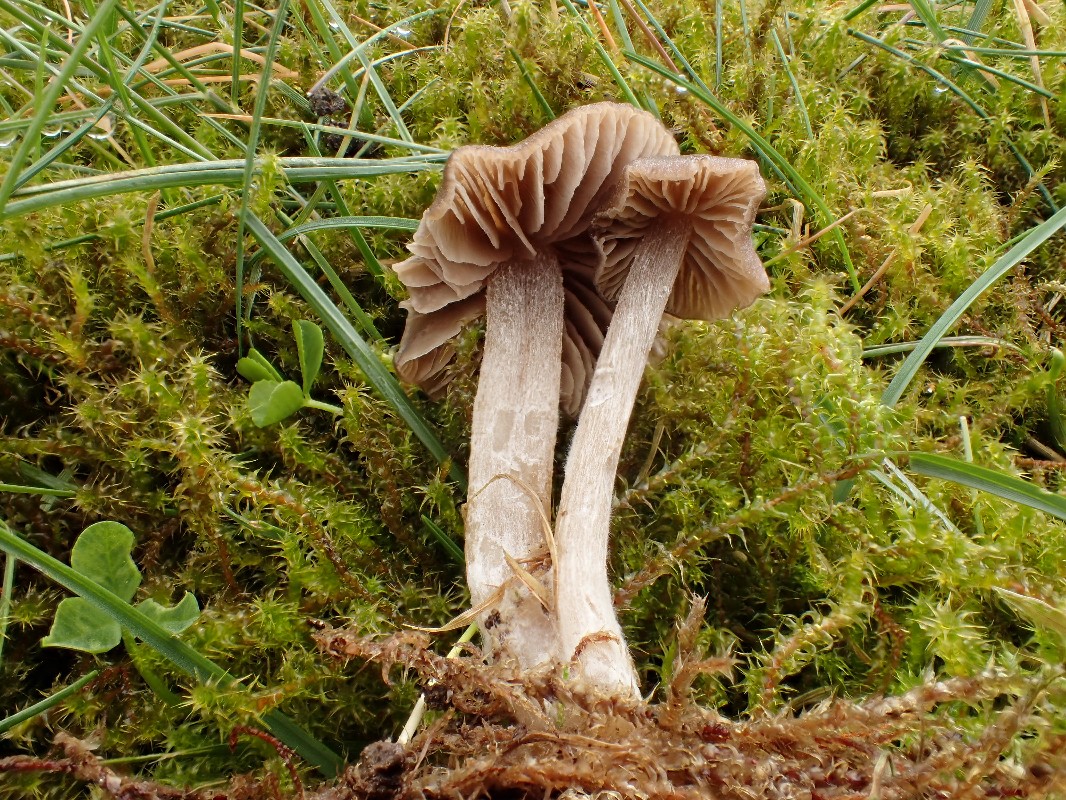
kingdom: Fungi
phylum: Basidiomycota
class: Agaricomycetes
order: Agaricales
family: Entolomataceae
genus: Entoloma
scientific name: Entoloma cuneatum
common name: dunstokket rødblad
